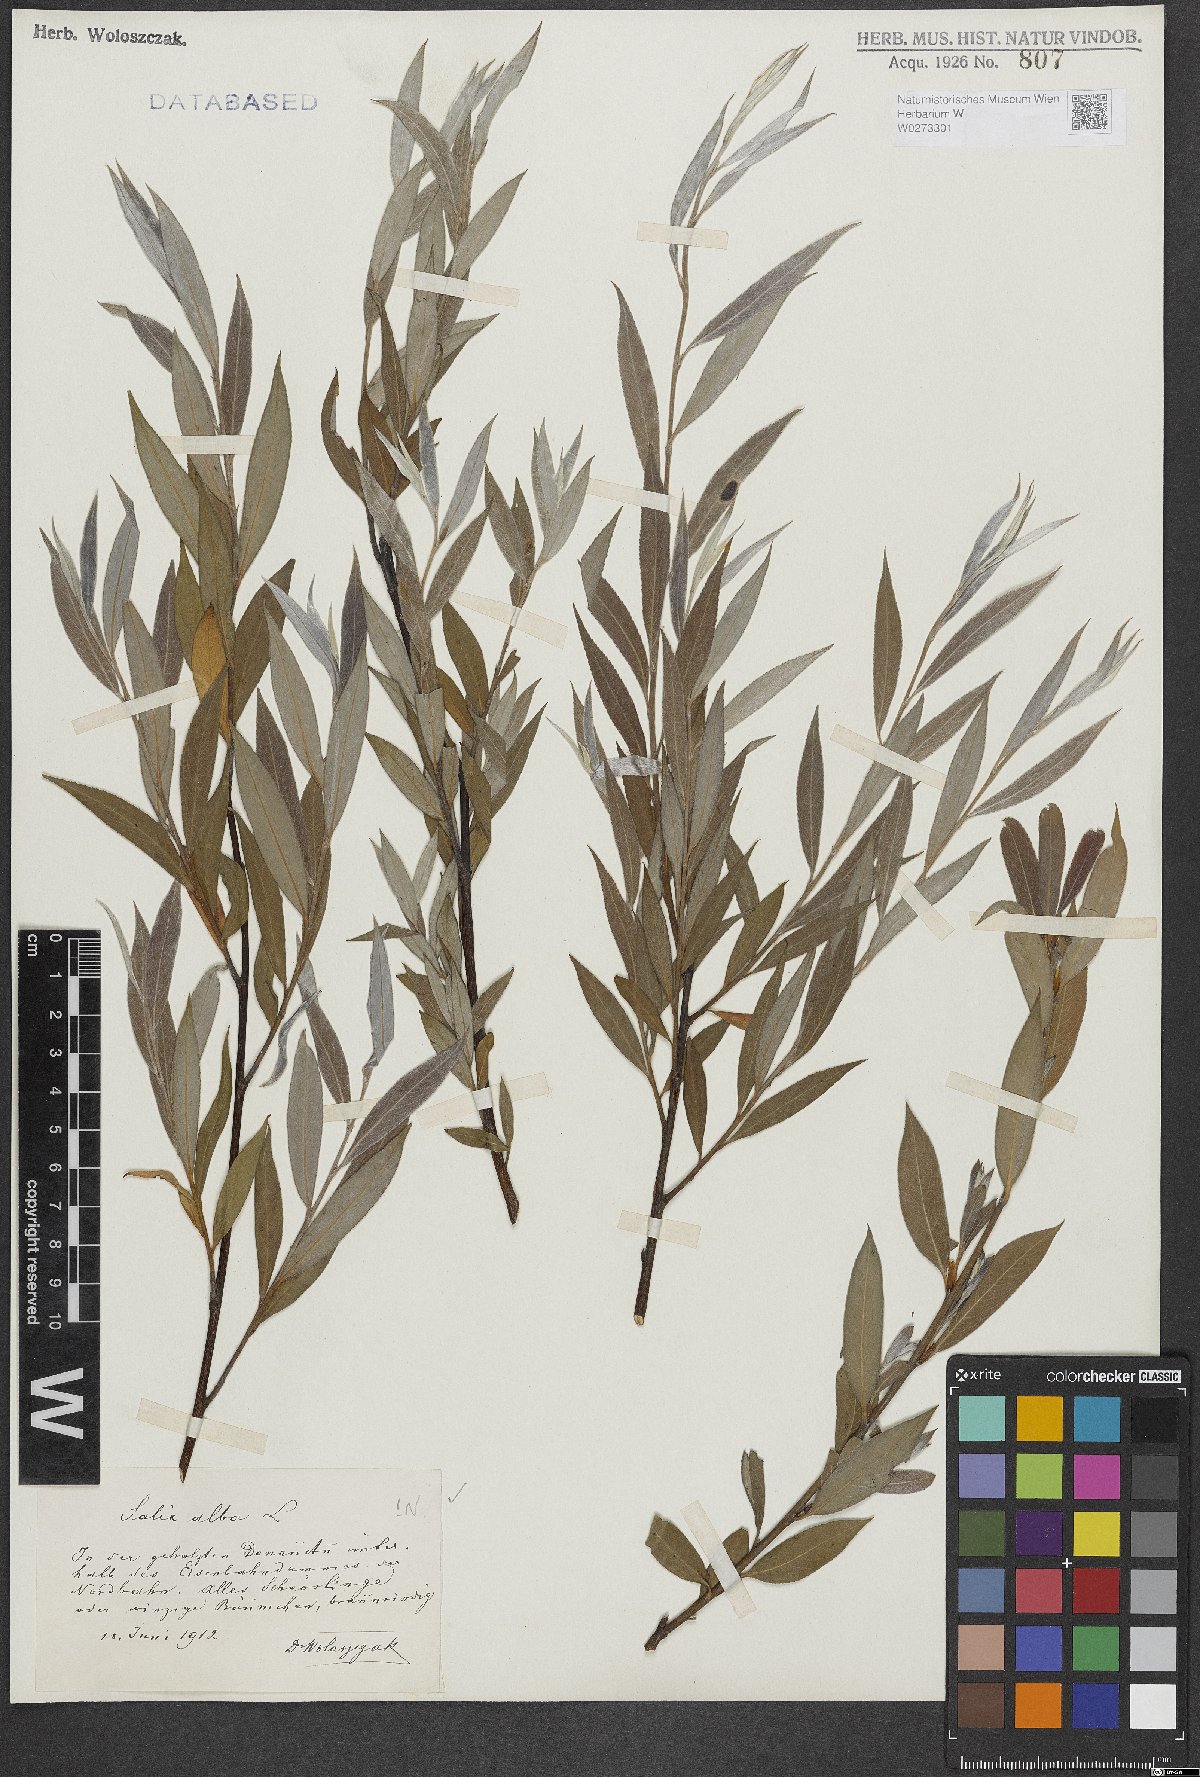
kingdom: Plantae
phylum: Tracheophyta
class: Magnoliopsida
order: Malpighiales
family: Salicaceae
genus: Salix
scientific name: Salix alba
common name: White willow
